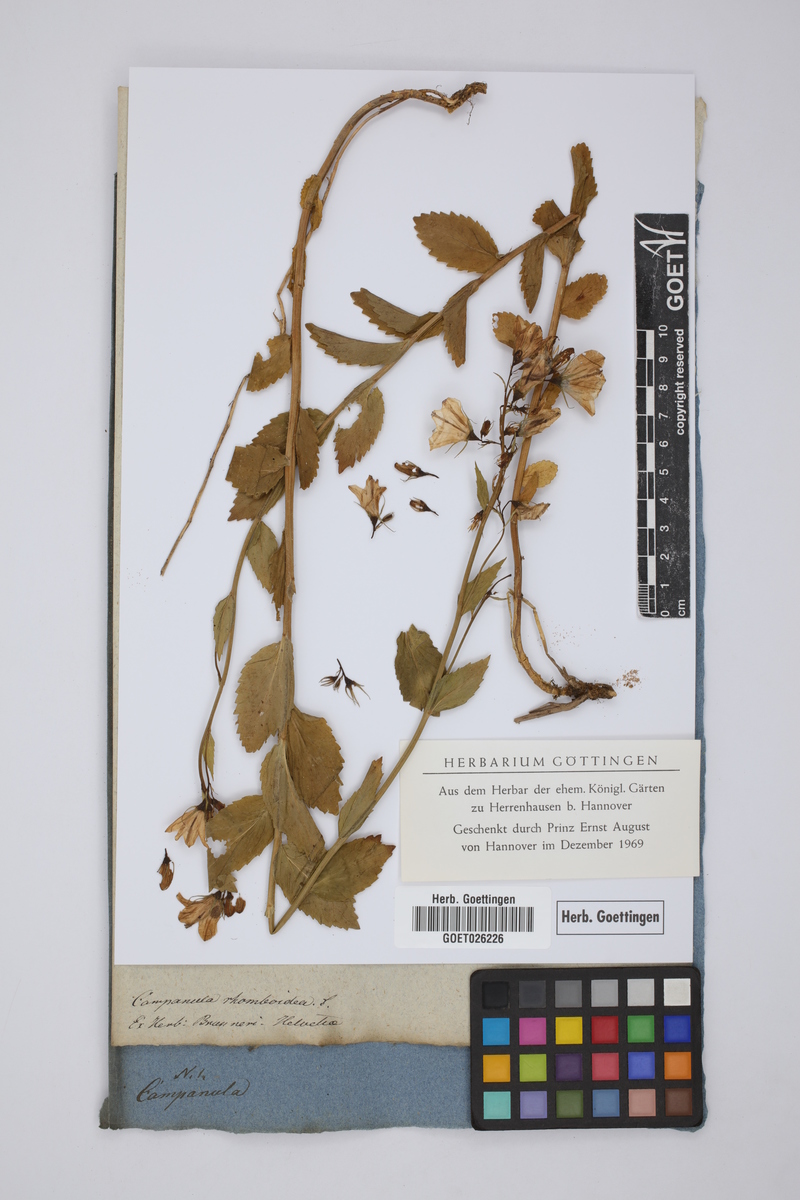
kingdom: Plantae
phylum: Tracheophyta
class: Magnoliopsida
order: Asterales
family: Campanulaceae
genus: Campanula
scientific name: Campanula rapunculoides
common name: Creeping bellflower
